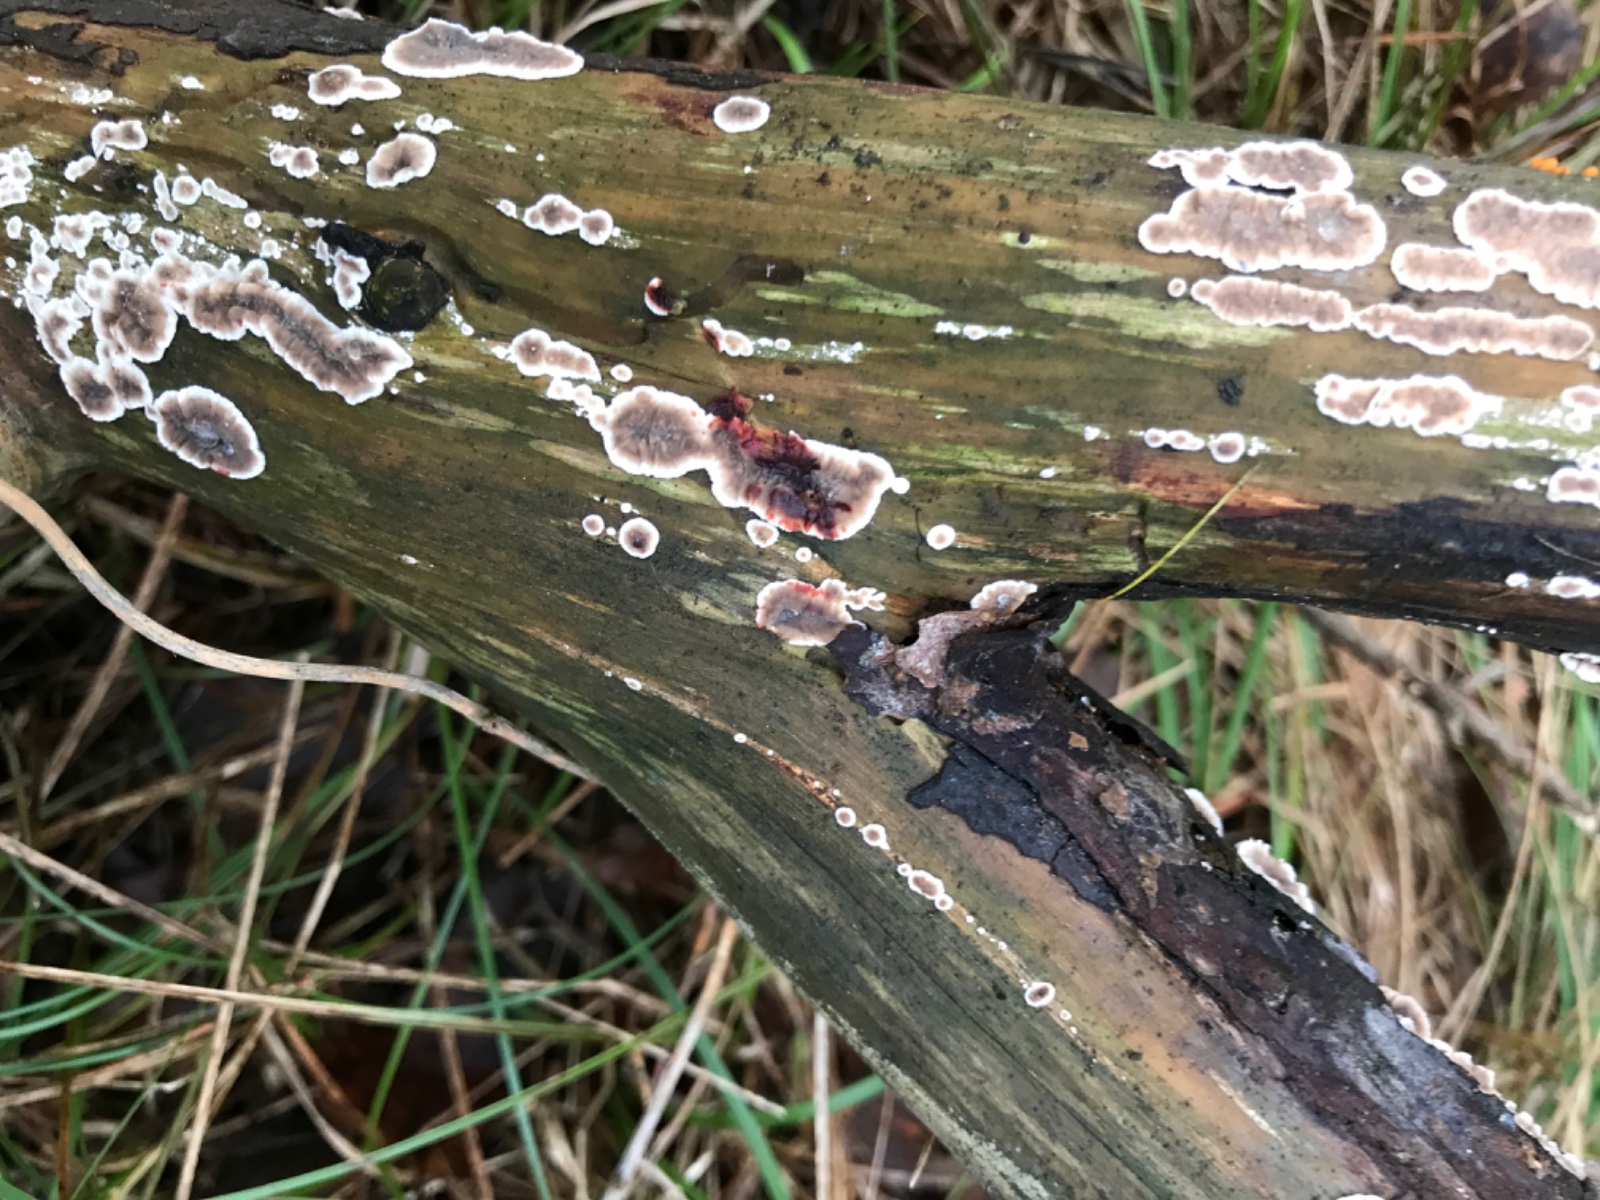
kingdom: Fungi
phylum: Basidiomycota
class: Agaricomycetes
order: Russulales
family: Stereaceae
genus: Stereum
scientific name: Stereum sanguinolentum
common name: blødende lædersvamp
